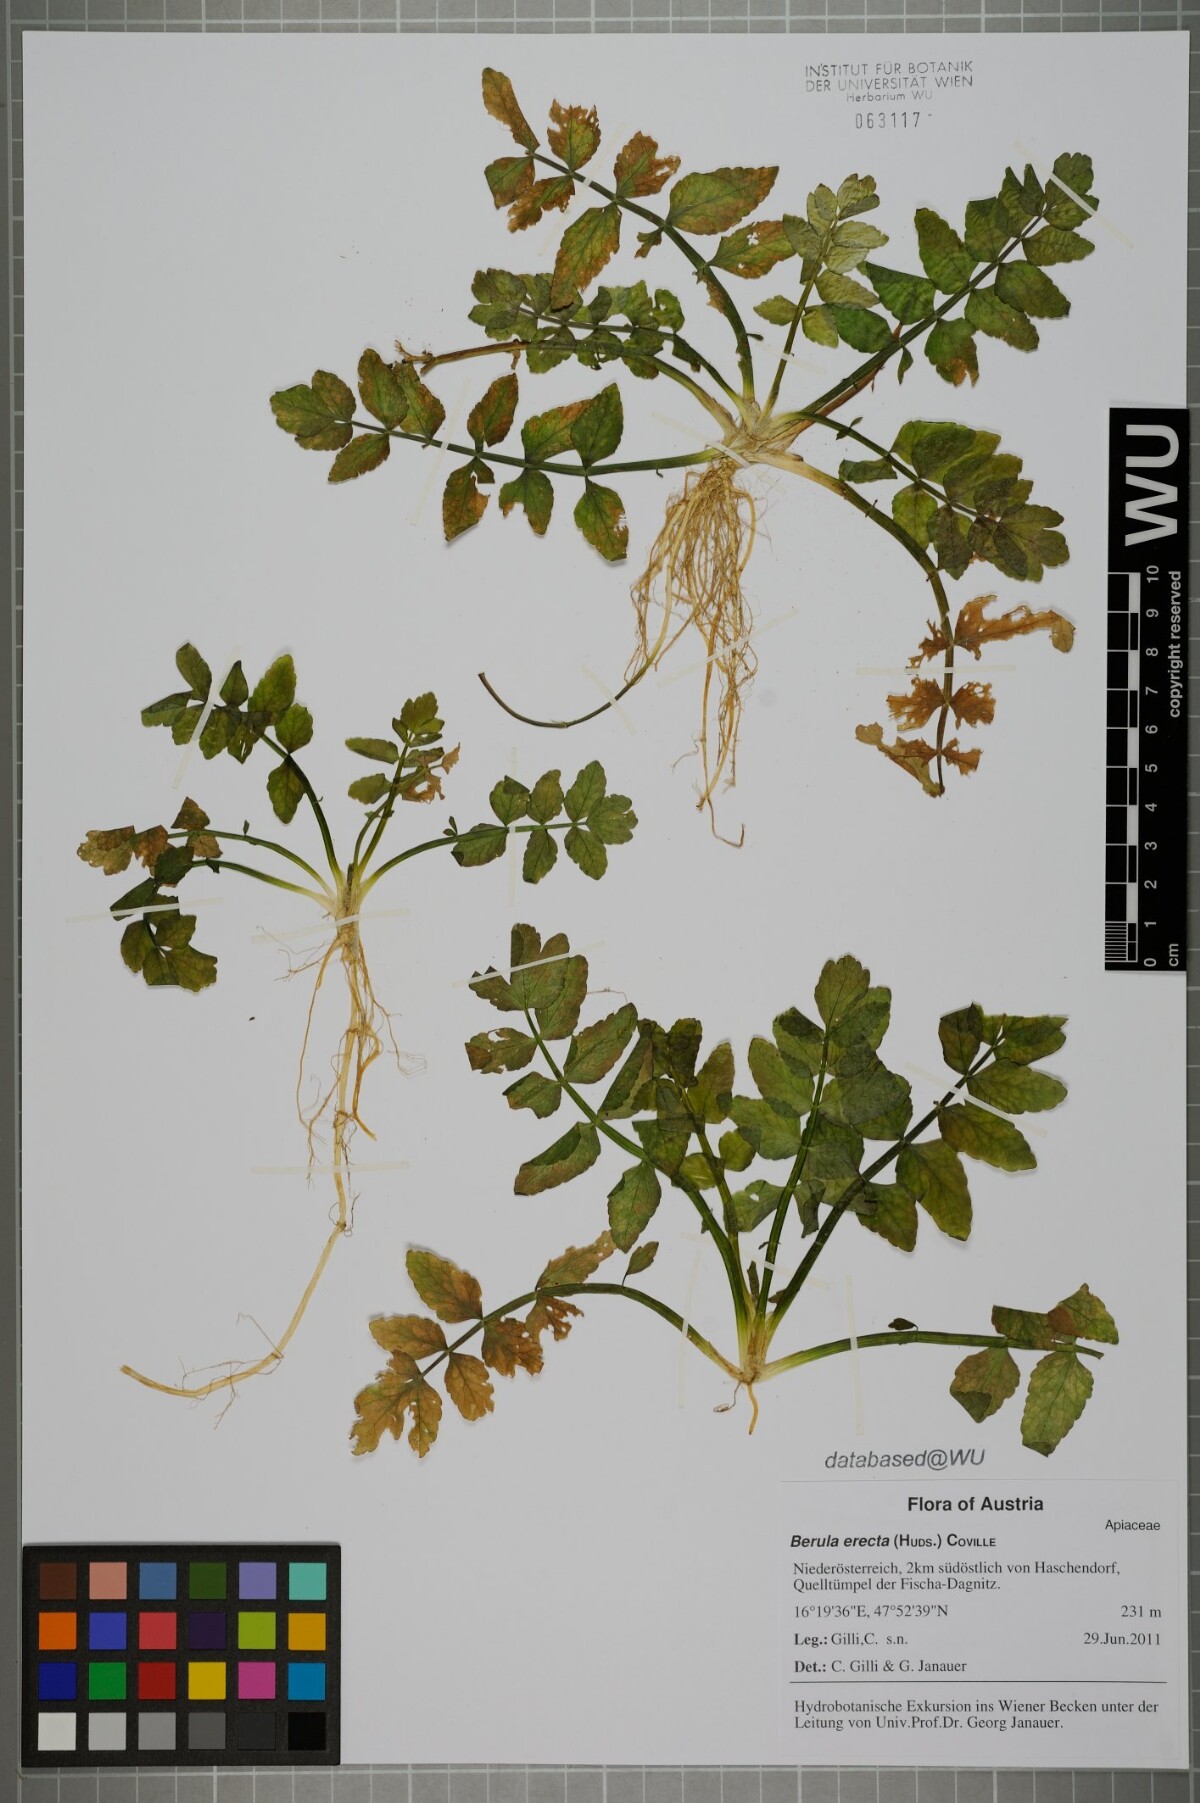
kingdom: Plantae
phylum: Tracheophyta
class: Magnoliopsida
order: Apiales
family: Apiaceae
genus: Berula
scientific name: Berula erecta
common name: Lesser water-parsnip
